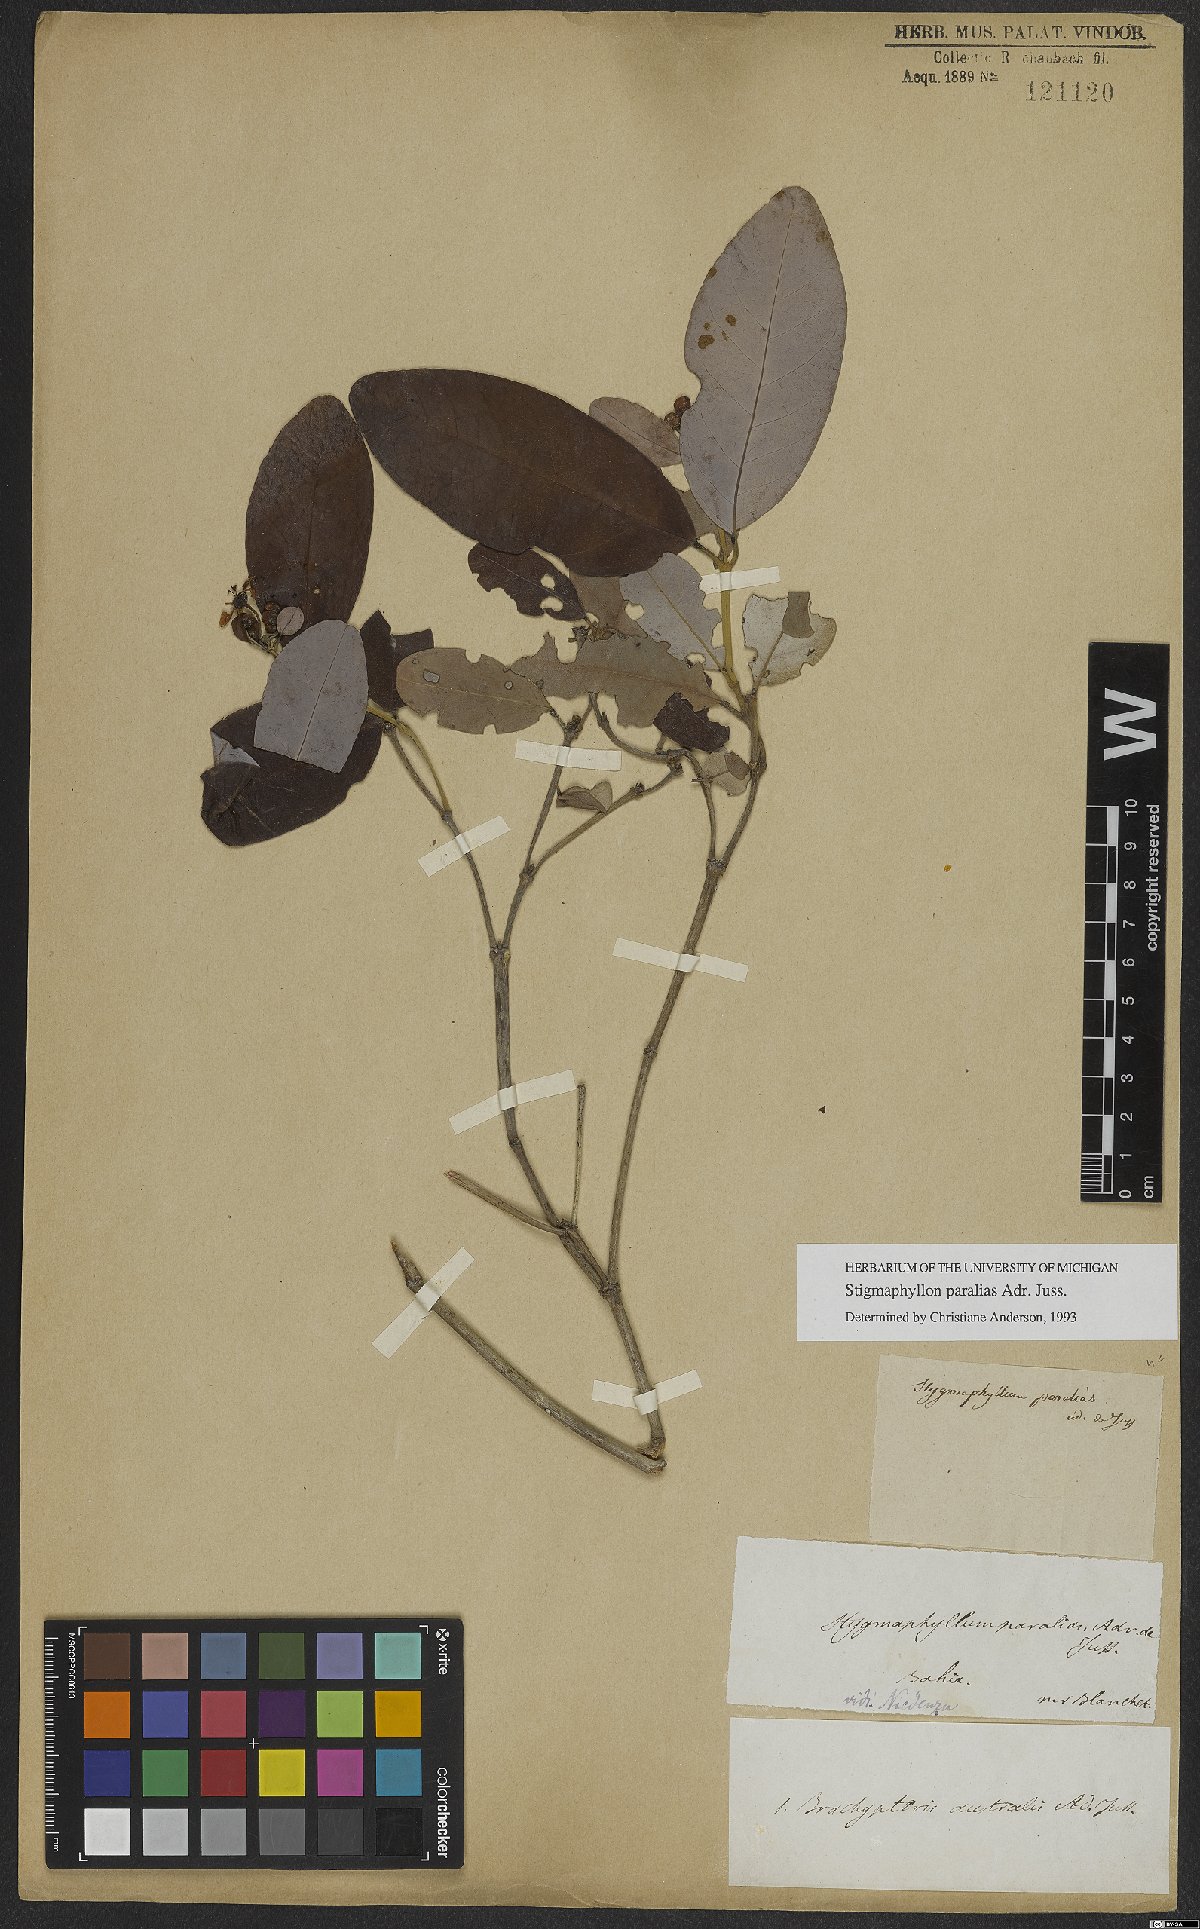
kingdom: Plantae
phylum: Tracheophyta
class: Magnoliopsida
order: Malpighiales
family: Malpighiaceae
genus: Stigmaphyllon
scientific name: Stigmaphyllon paralias
